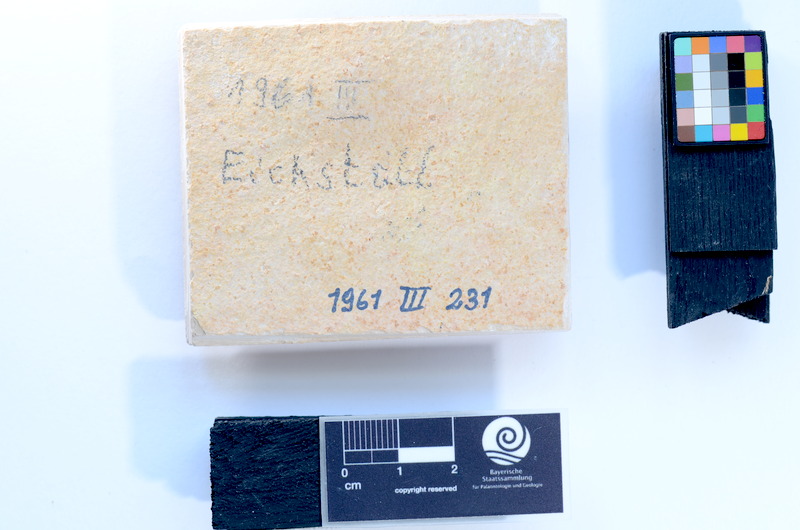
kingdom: Animalia
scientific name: Animalia
